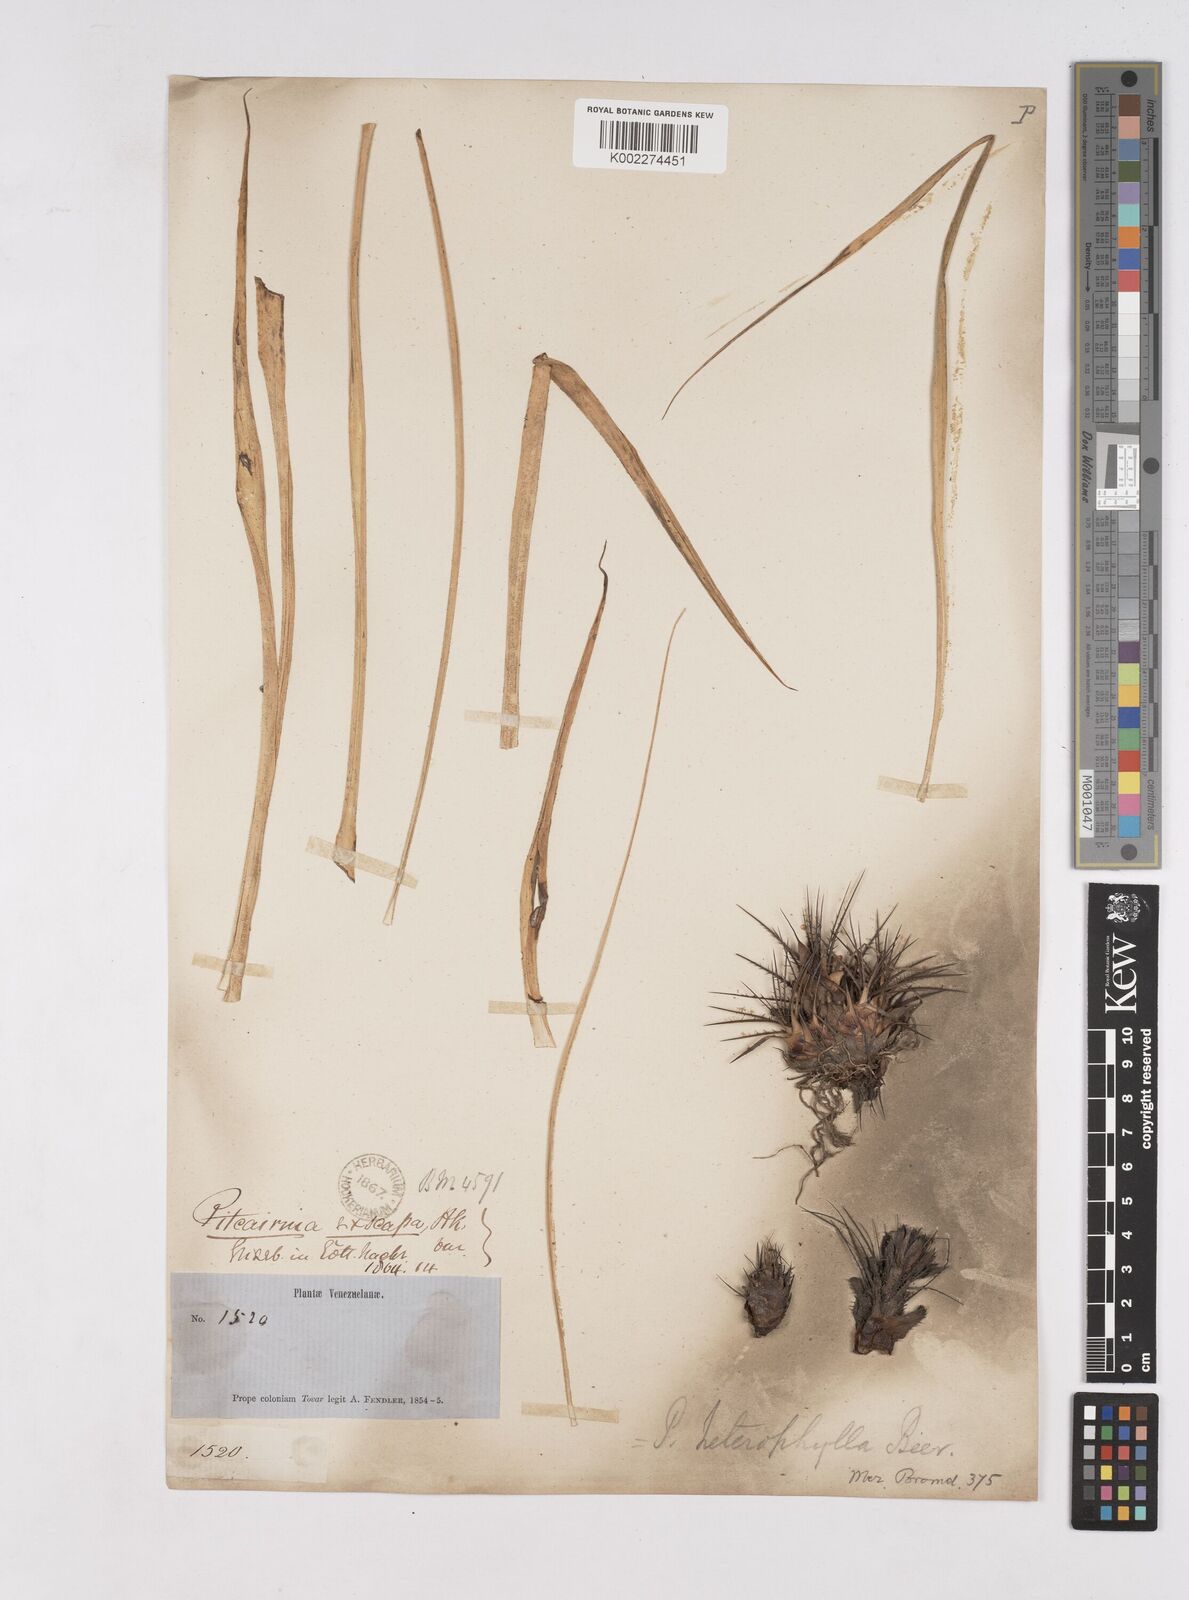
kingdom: Plantae
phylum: Tracheophyta
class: Liliopsida
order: Poales
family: Bromeliaceae
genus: Pitcairnia
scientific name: Pitcairnia heterophylla
